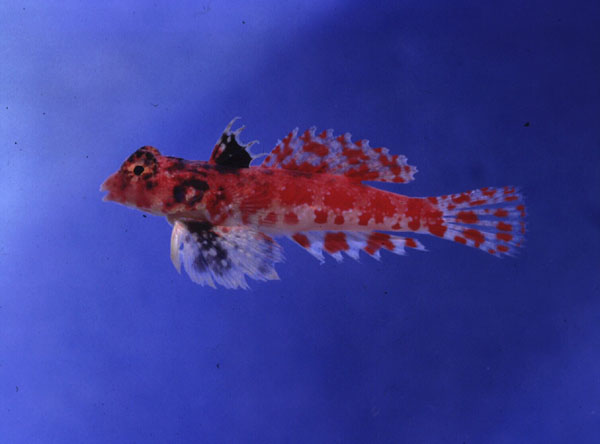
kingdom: Animalia
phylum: Chordata
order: Perciformes
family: Callionymidae
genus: Synchiropus
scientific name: Synchiropus stellatus
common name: Starry dragonet
